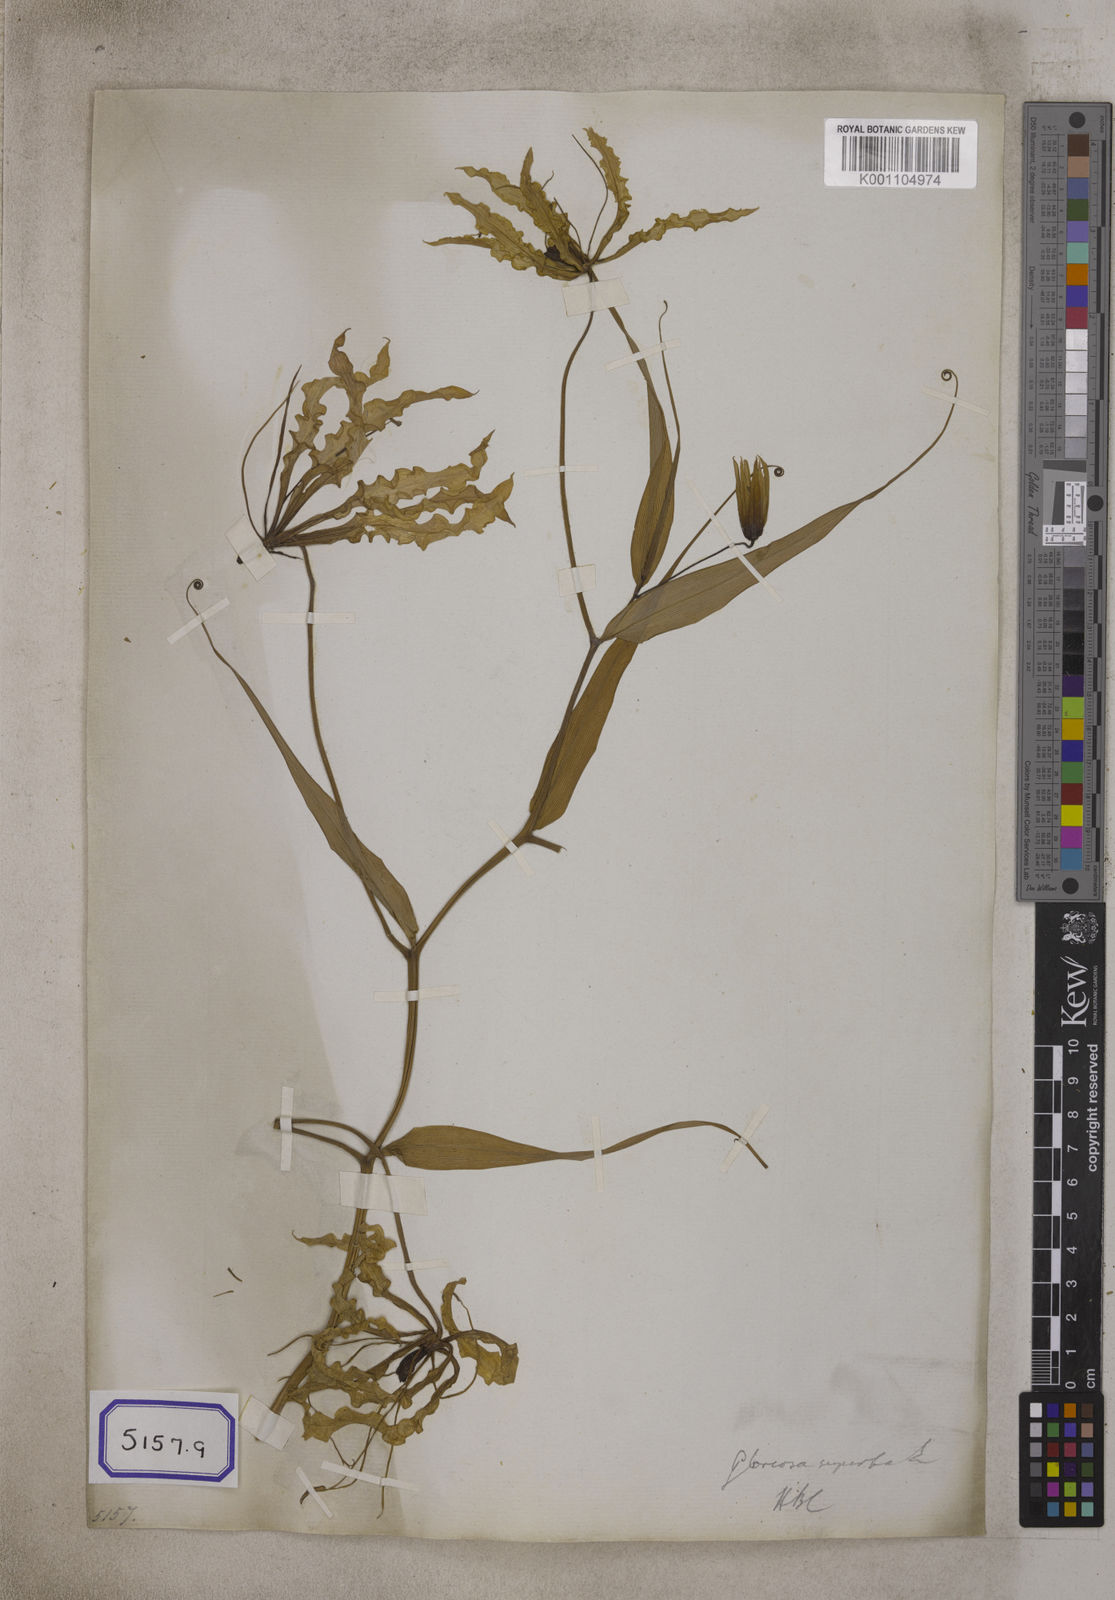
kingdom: Plantae
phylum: Tracheophyta
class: Liliopsida
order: Liliales
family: Colchicaceae
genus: Gloriosa
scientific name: Gloriosa superba
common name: Flame lily
